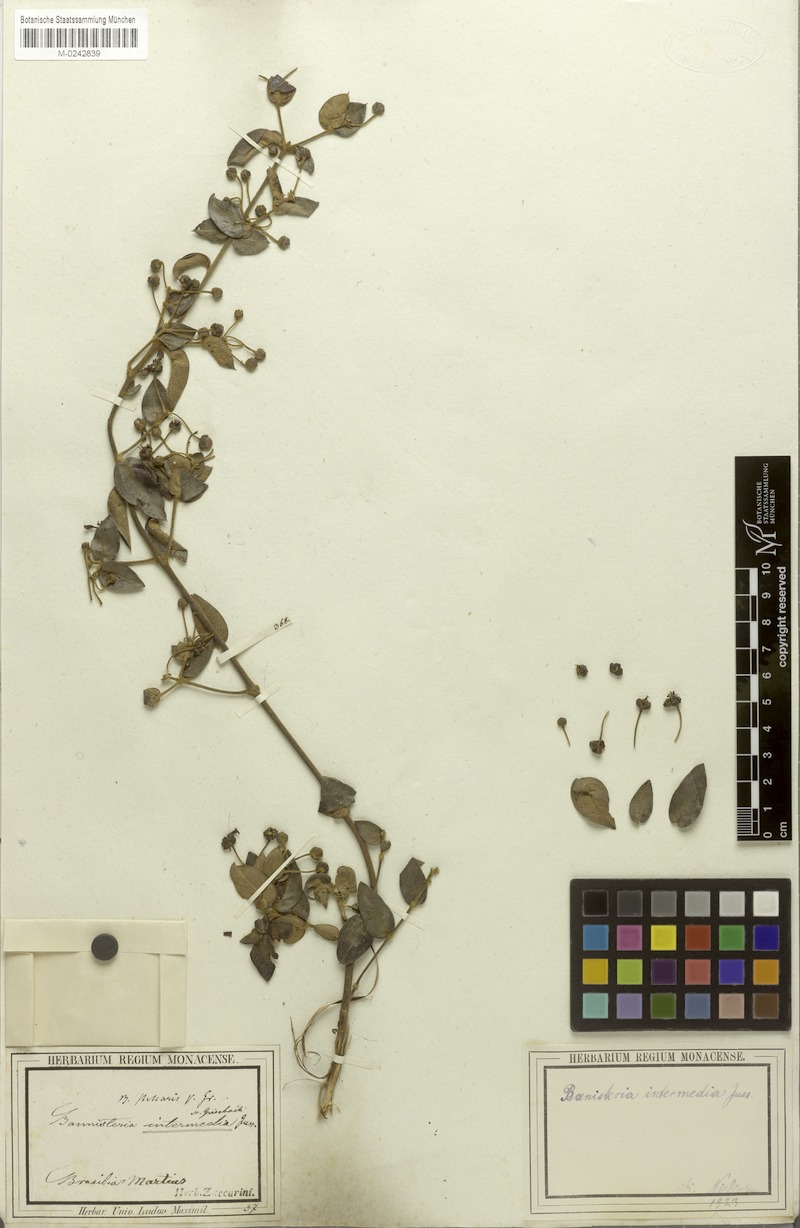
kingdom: Plantae
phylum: Tracheophyta
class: Magnoliopsida
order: Malpighiales
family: Malpighiaceae
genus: Banisteriopsis
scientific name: Banisteriopsis schizoptera
